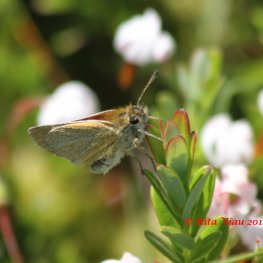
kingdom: Animalia
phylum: Arthropoda
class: Insecta
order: Lepidoptera
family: Hesperiidae
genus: Thymelicus
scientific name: Thymelicus lineola
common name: European Skipper
